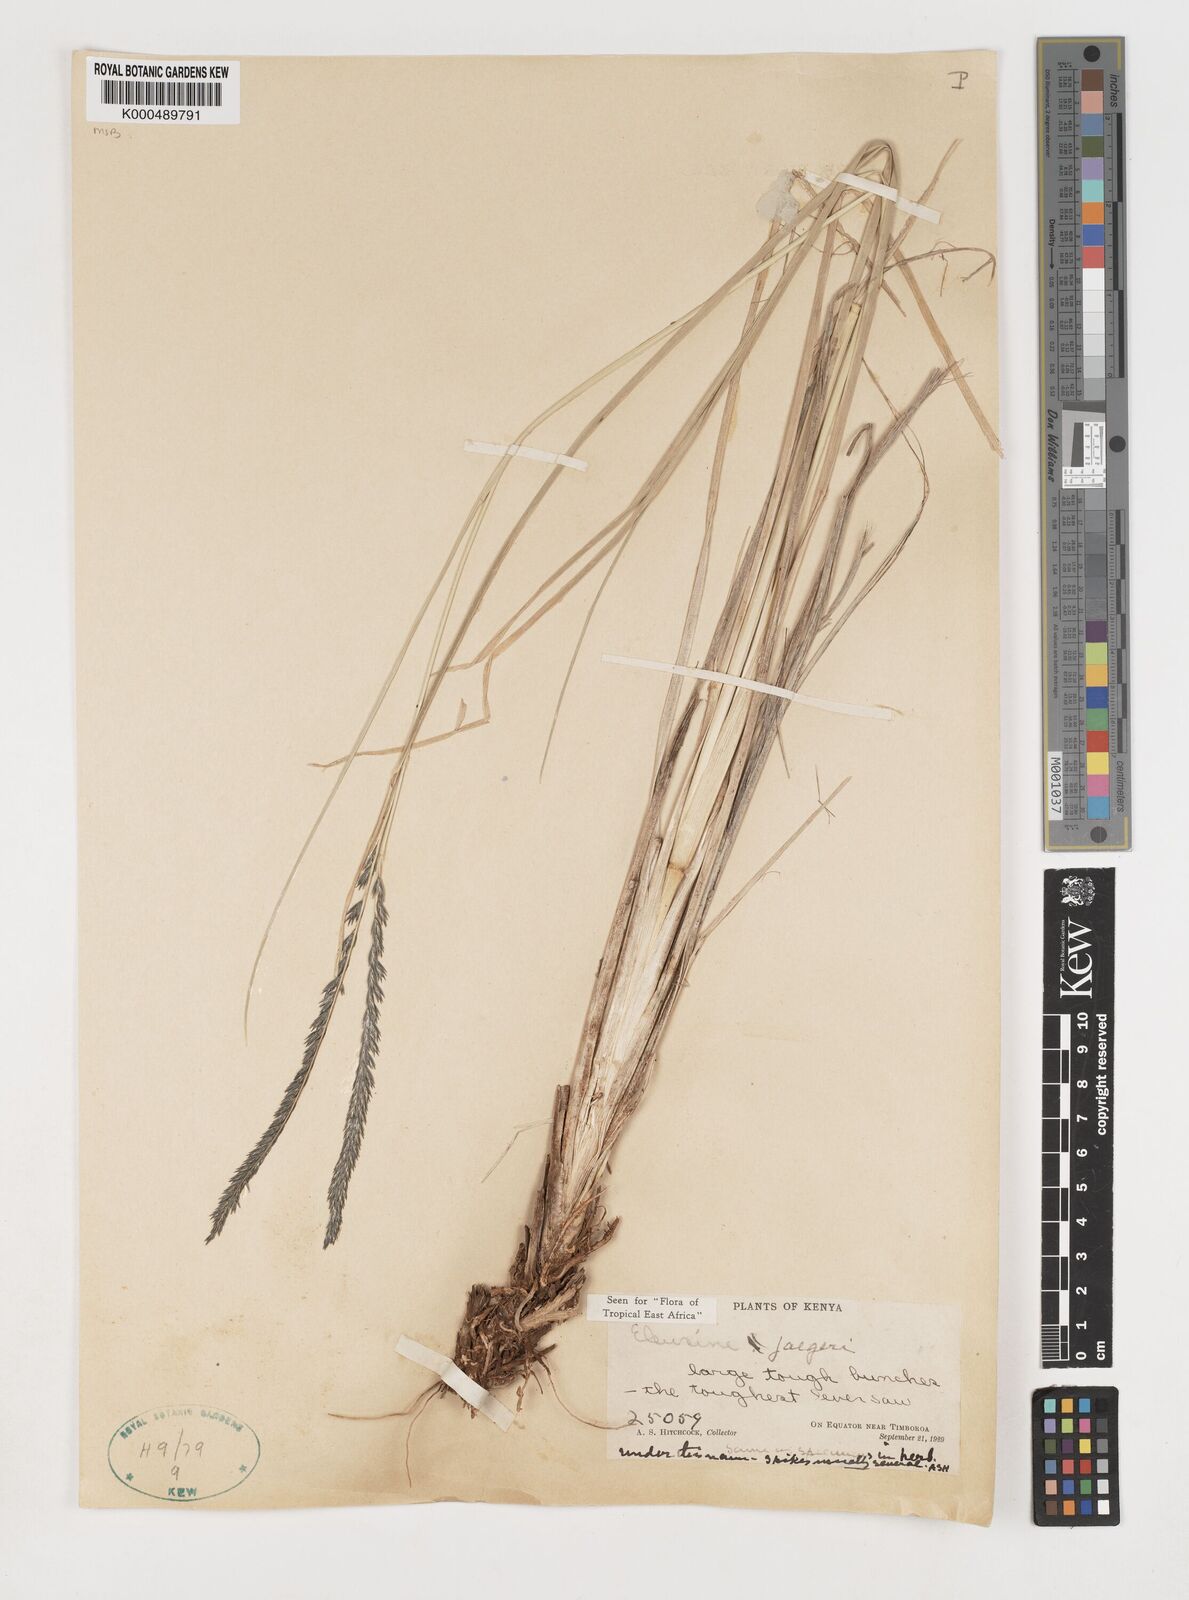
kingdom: Plantae
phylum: Tracheophyta
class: Liliopsida
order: Poales
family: Poaceae
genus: Eleusine
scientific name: Eleusine jaegeri
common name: Manyatta grass
